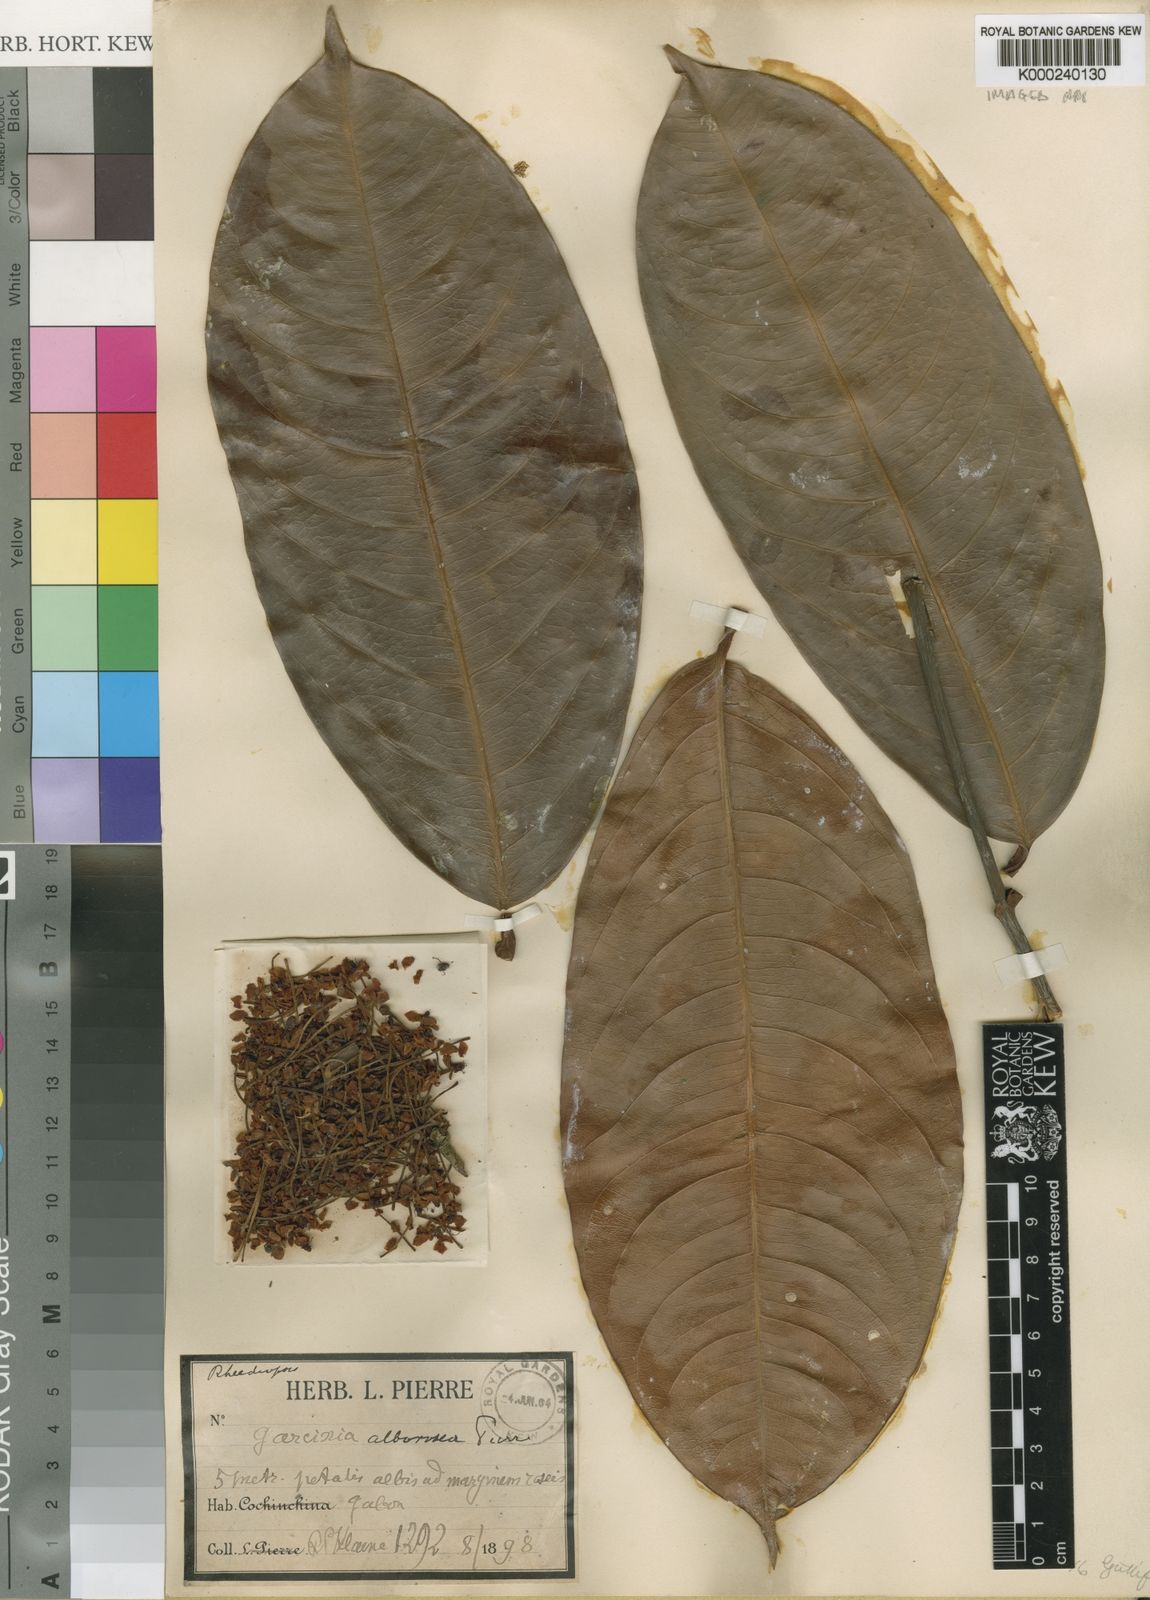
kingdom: Plantae
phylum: Tracheophyta
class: Magnoliopsida
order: Malpighiales
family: Clusiaceae
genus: Garcinia
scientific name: Garcinia smeathmannii
